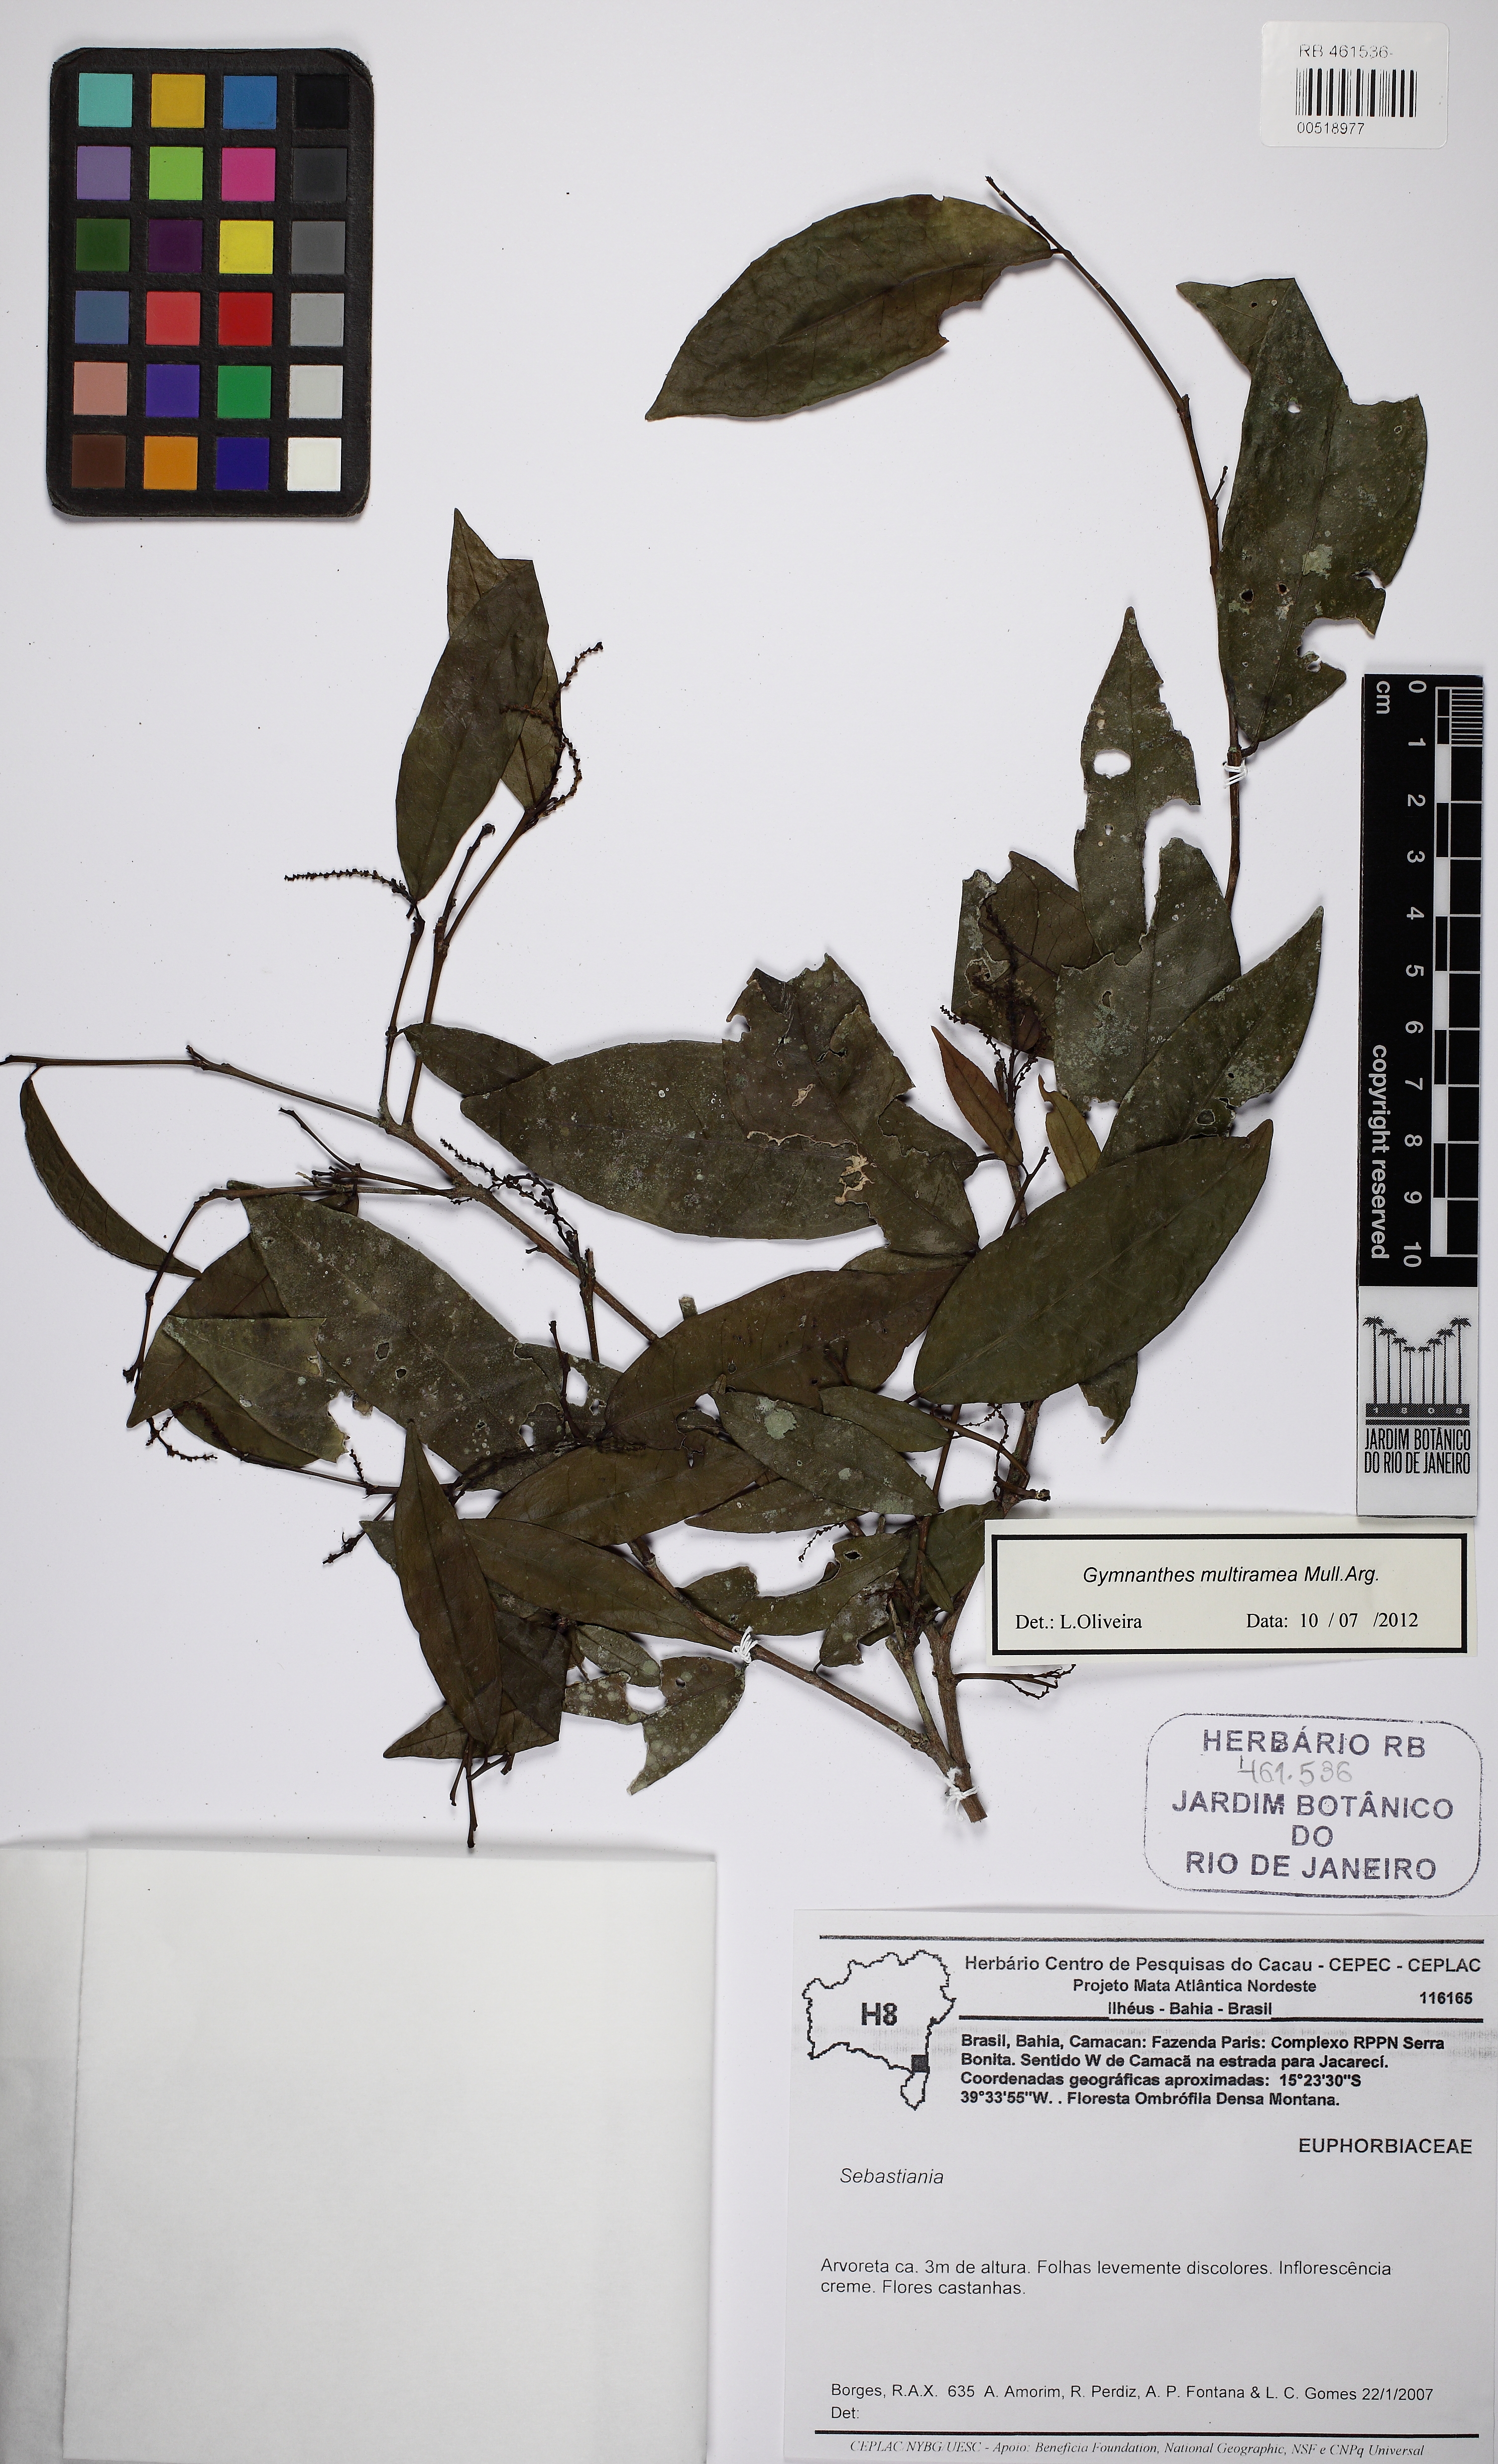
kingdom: Plantae
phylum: Tracheophyta
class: Magnoliopsida
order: Malpighiales
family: Euphorbiaceae
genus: Gymnanthes
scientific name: Gymnanthes glabrata
